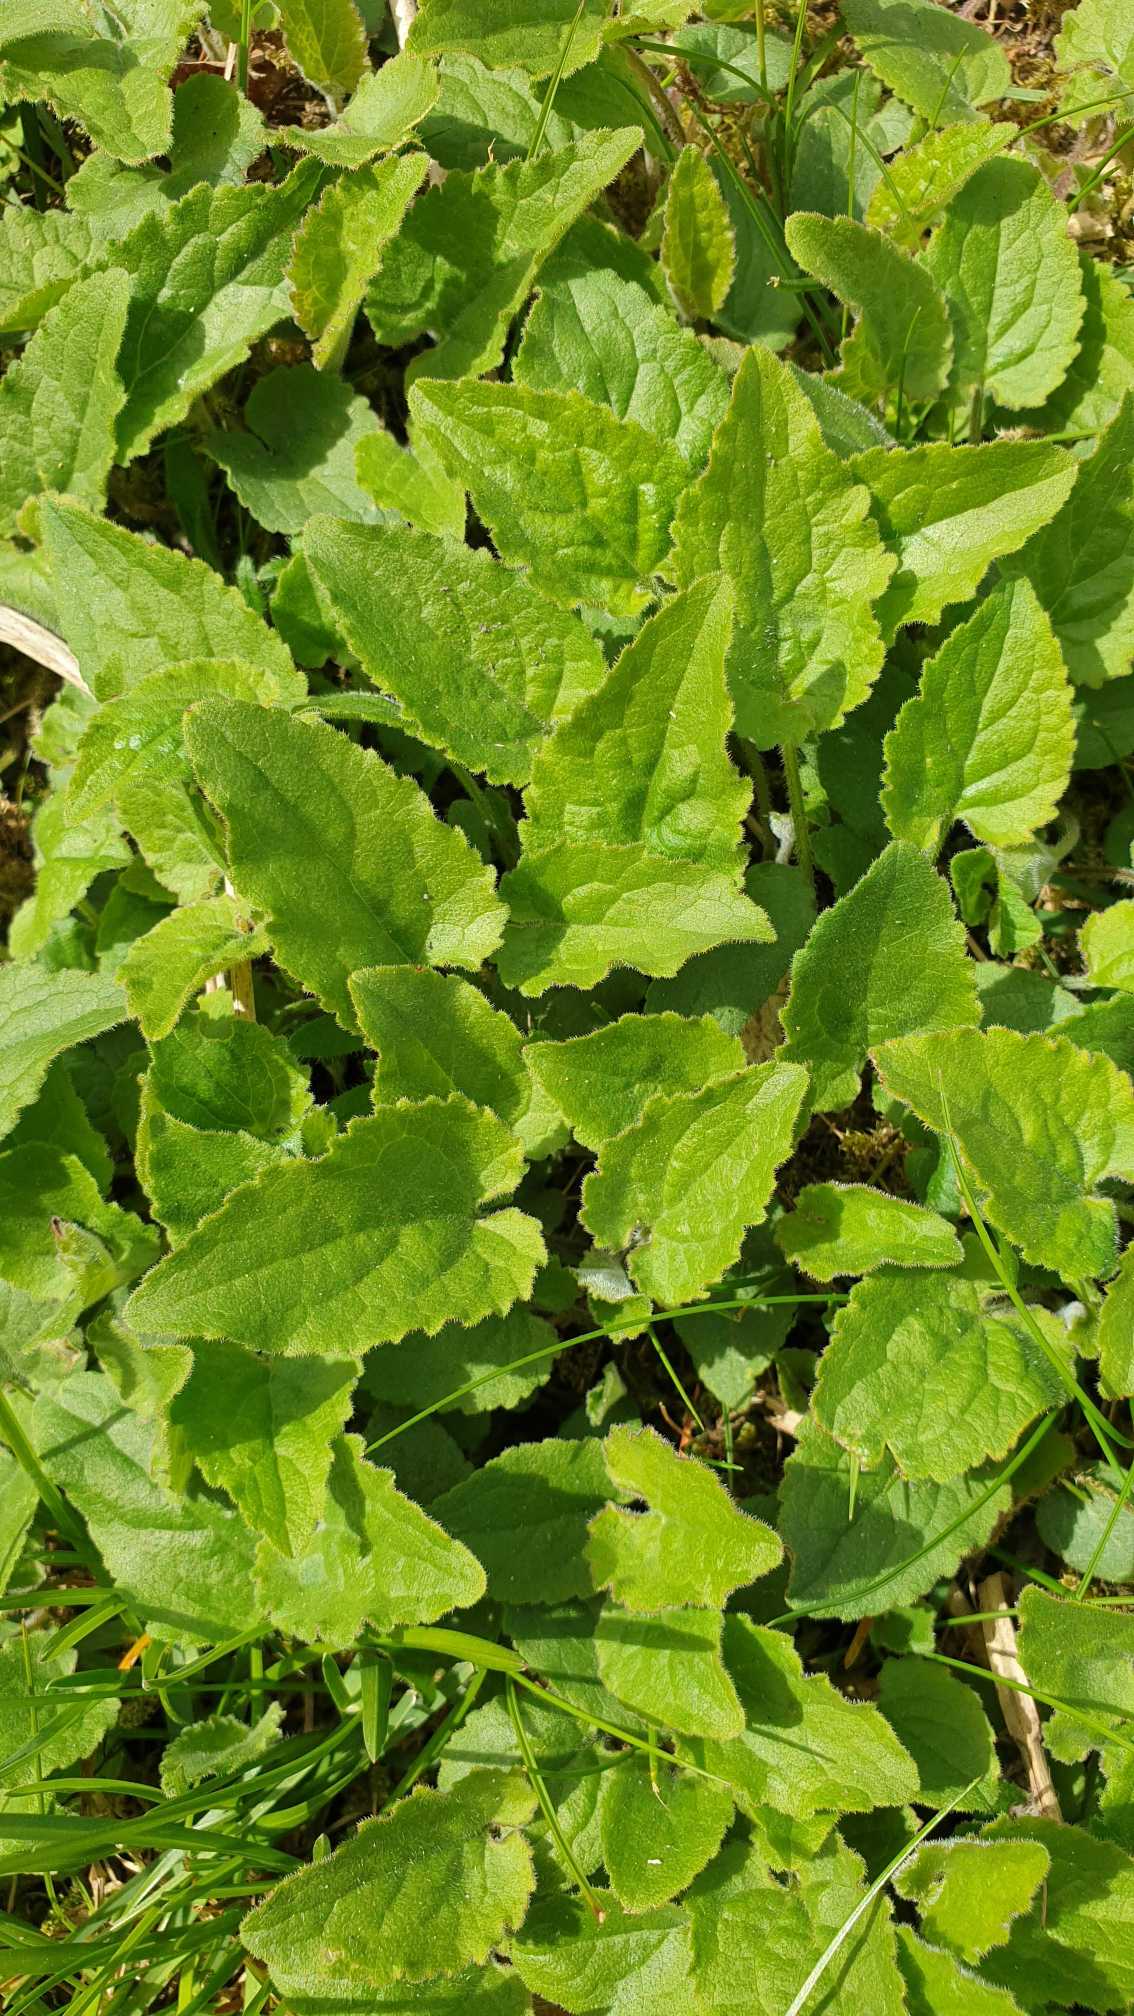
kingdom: Plantae
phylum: Tracheophyta
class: Magnoliopsida
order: Asterales
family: Campanulaceae
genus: Campanula
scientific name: Campanula rapunculoides
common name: Ensidig klokke
